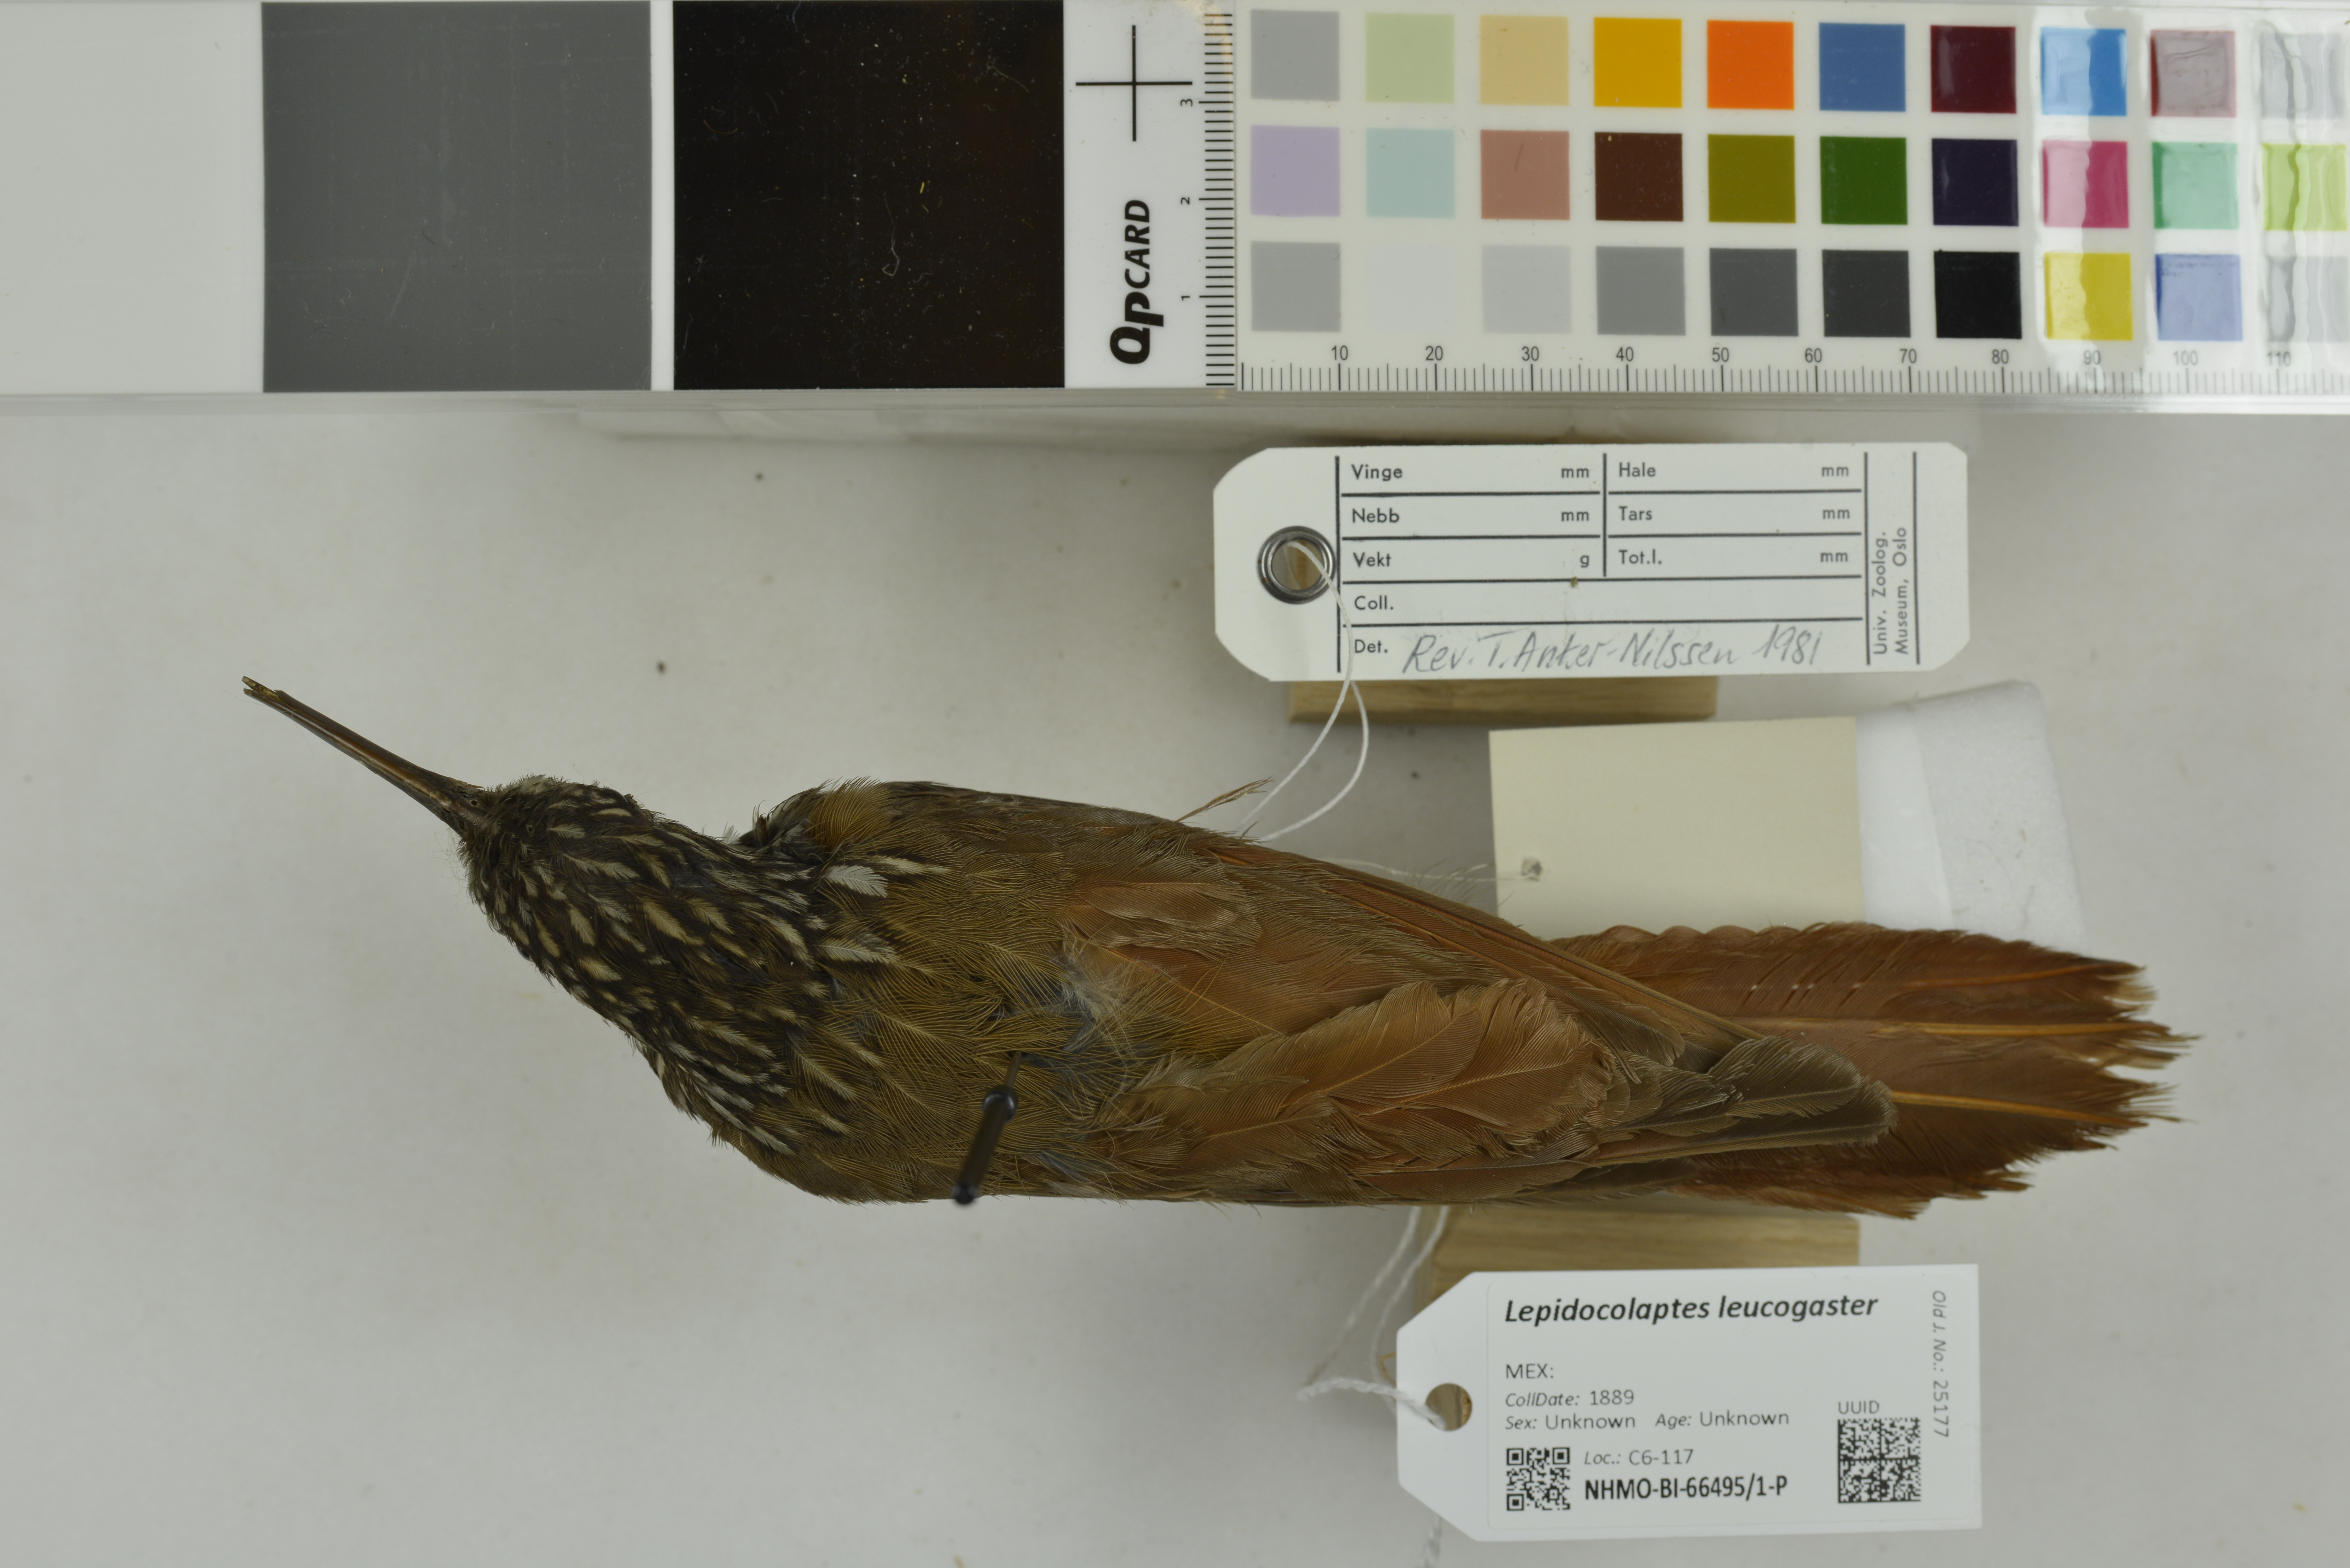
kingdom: Animalia
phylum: Chordata
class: Aves
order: Passeriformes
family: Furnariidae
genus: Lepidocolaptes
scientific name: Lepidocolaptes leucogaster
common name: White-striped woodcreeper
